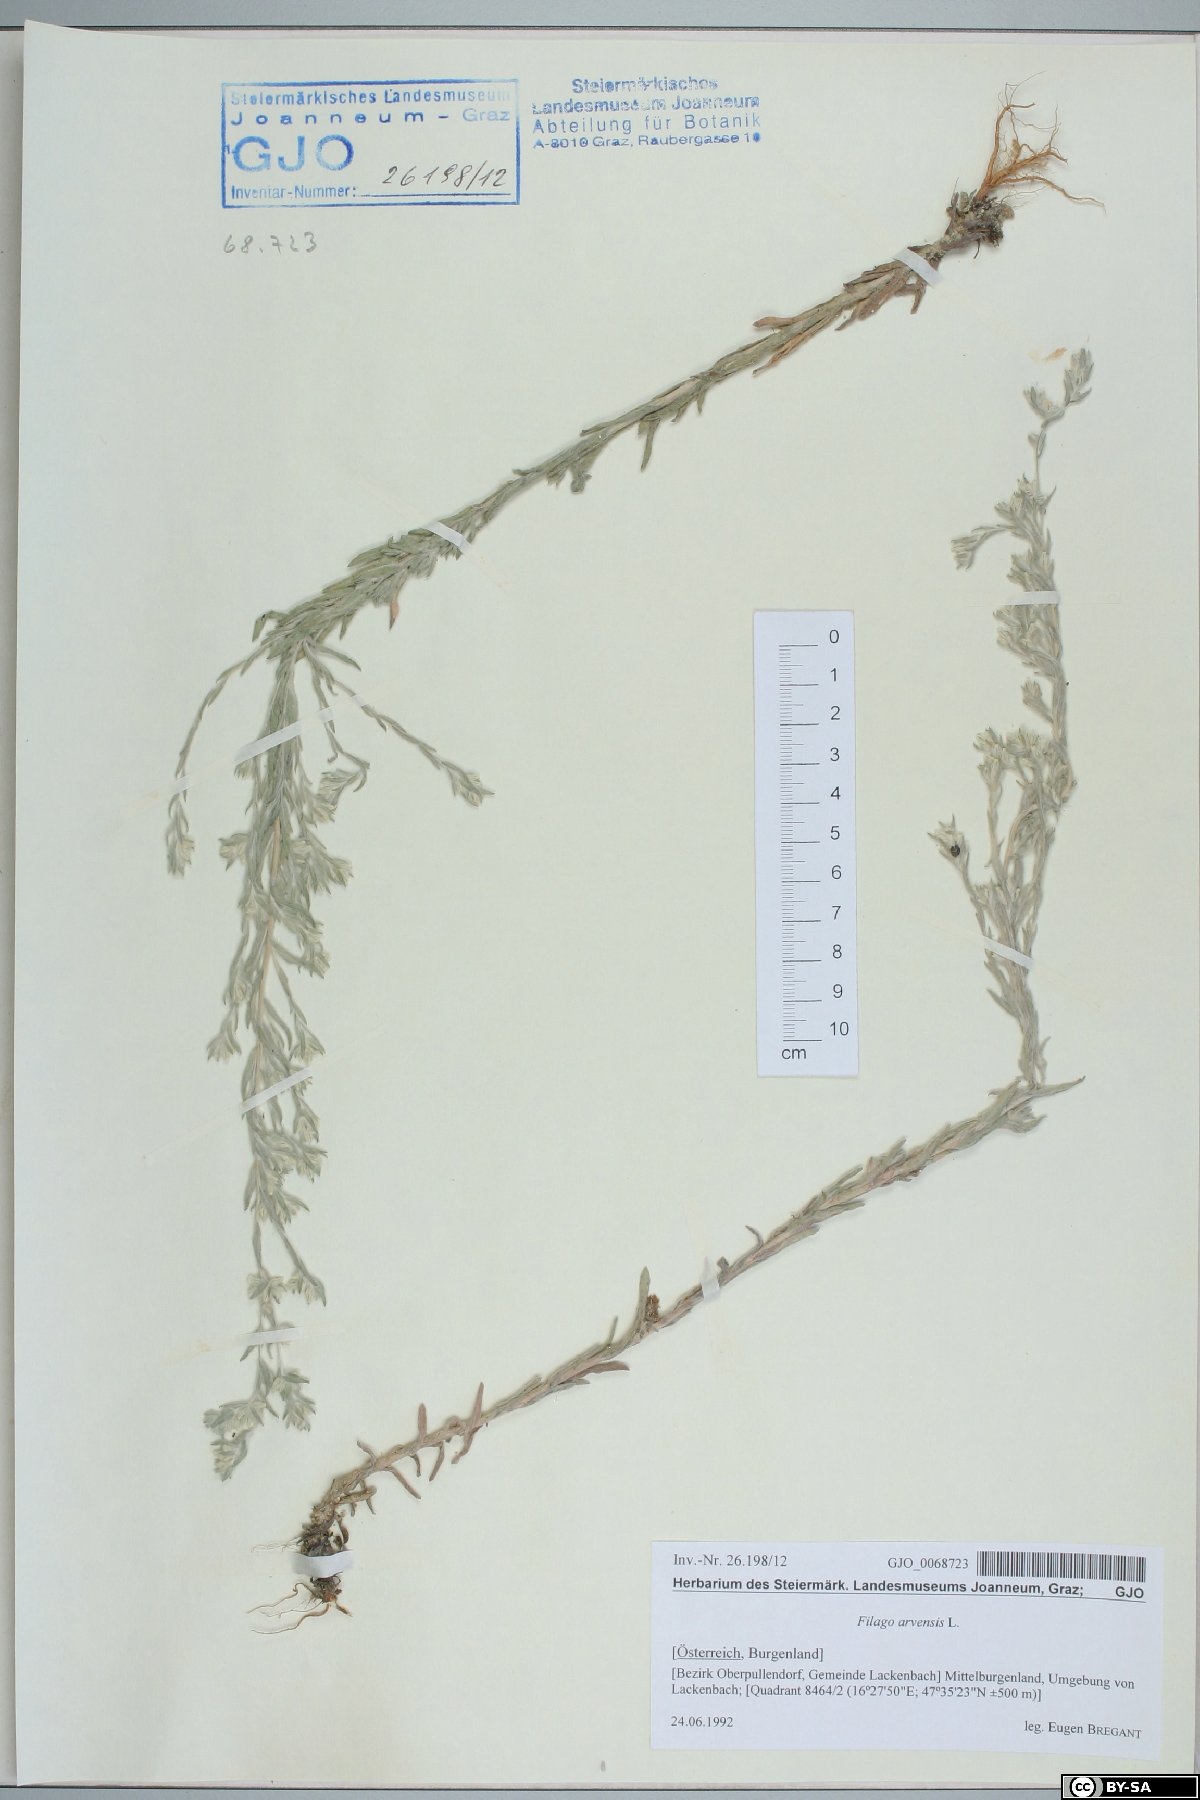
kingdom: Plantae
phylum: Tracheophyta
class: Magnoliopsida
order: Asterales
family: Asteraceae
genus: Filago
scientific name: Filago arvensis
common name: Field cudweed
